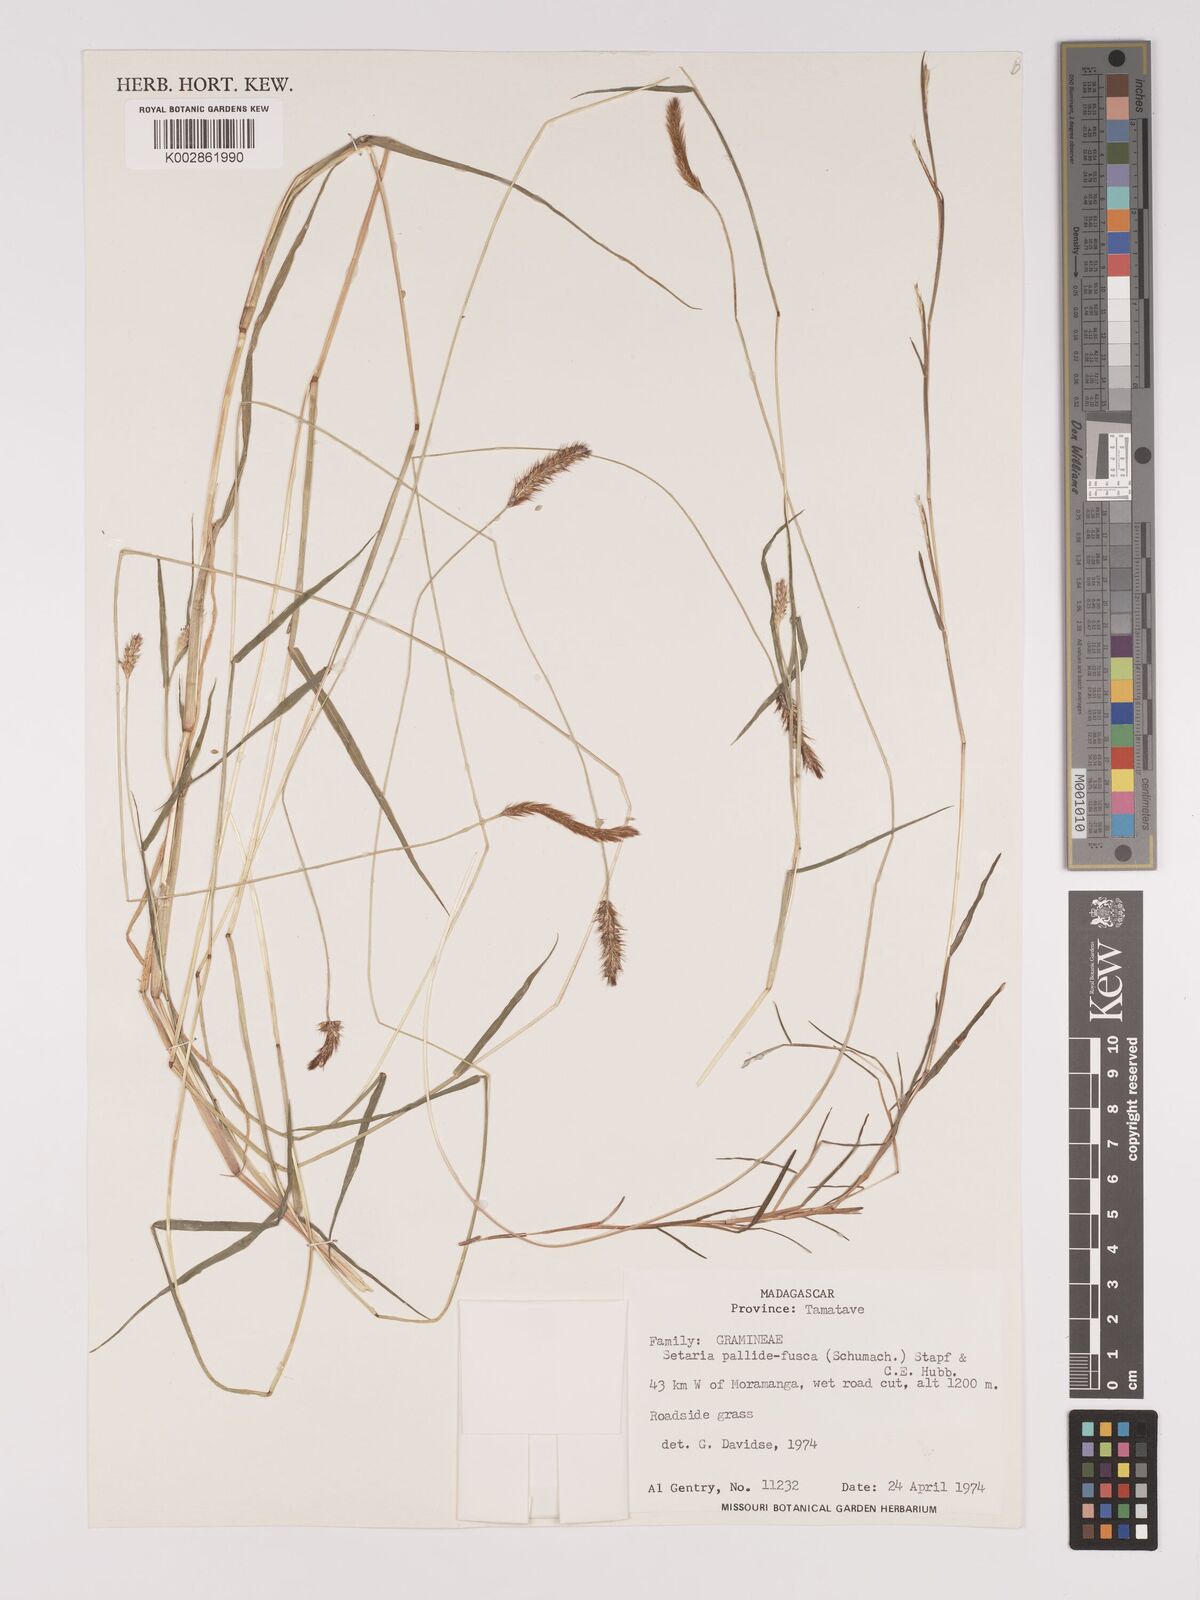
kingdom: Plantae
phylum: Tracheophyta
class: Liliopsida
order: Poales
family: Poaceae
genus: Setaria
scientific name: Setaria pumila
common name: Yellow bristle-grass
